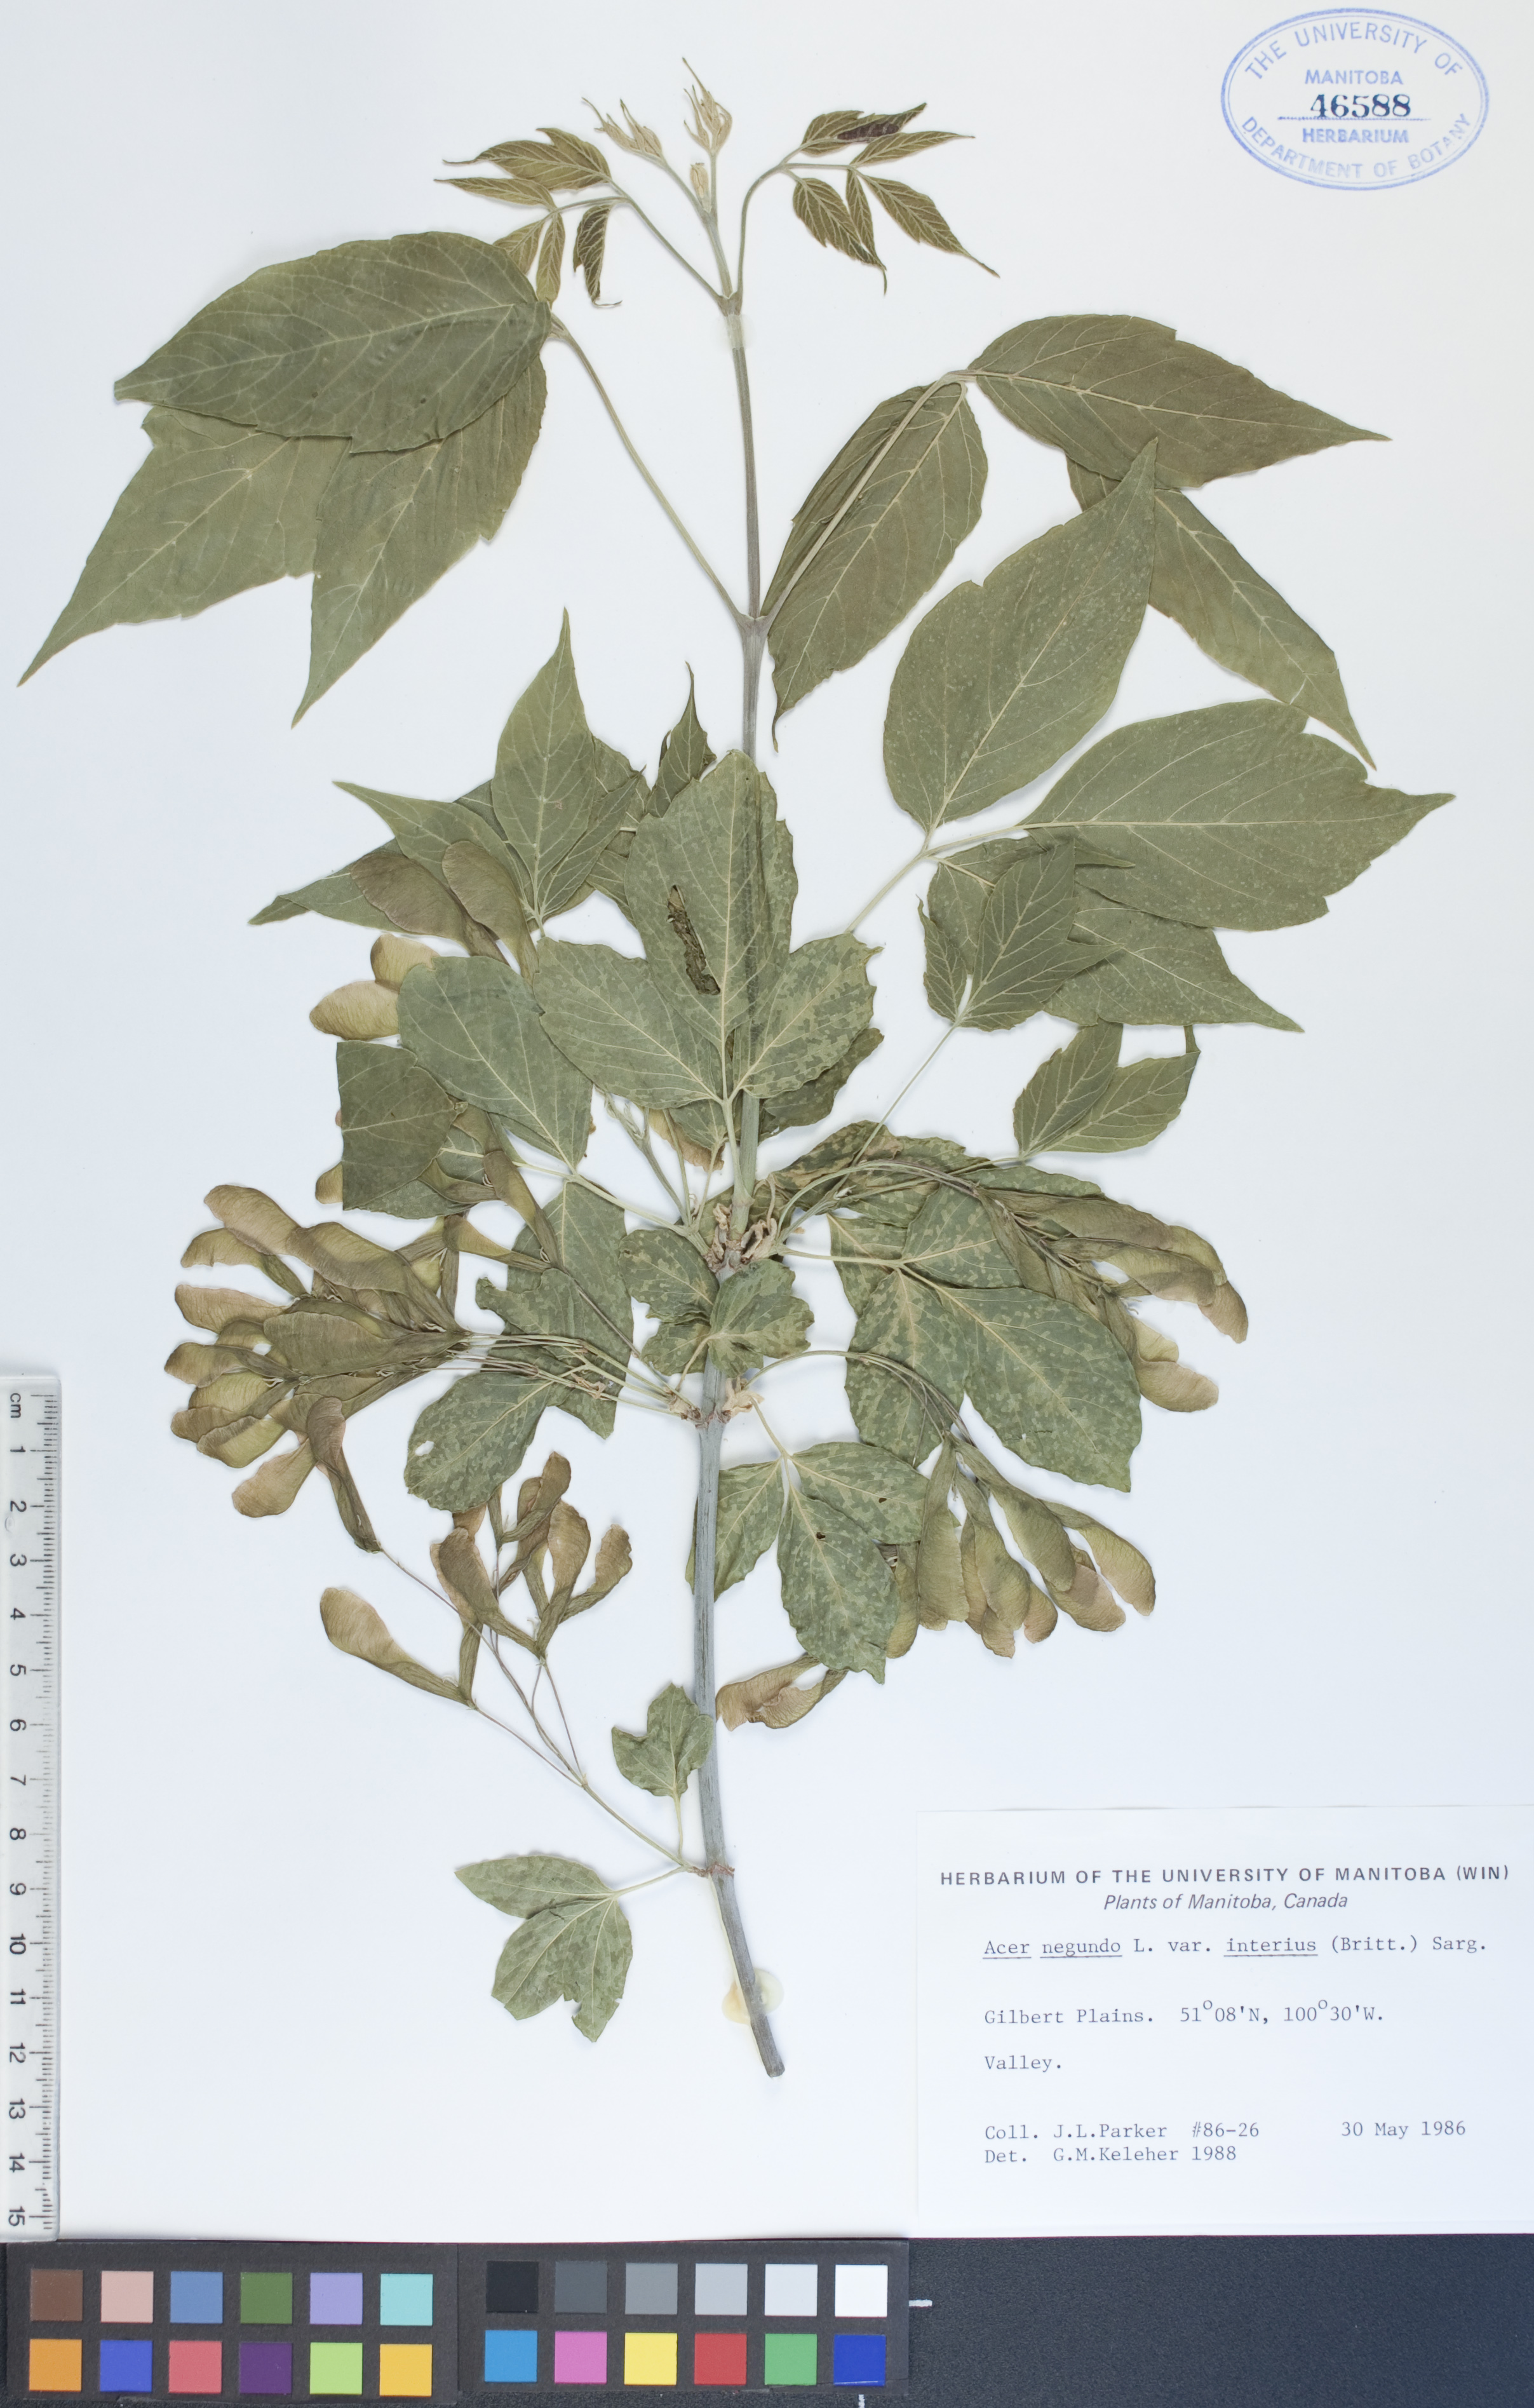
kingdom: Plantae
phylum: Tracheophyta
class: Magnoliopsida
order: Sapindales
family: Sapindaceae
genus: Acer
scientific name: Acer negundo
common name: Ashleaf maple
